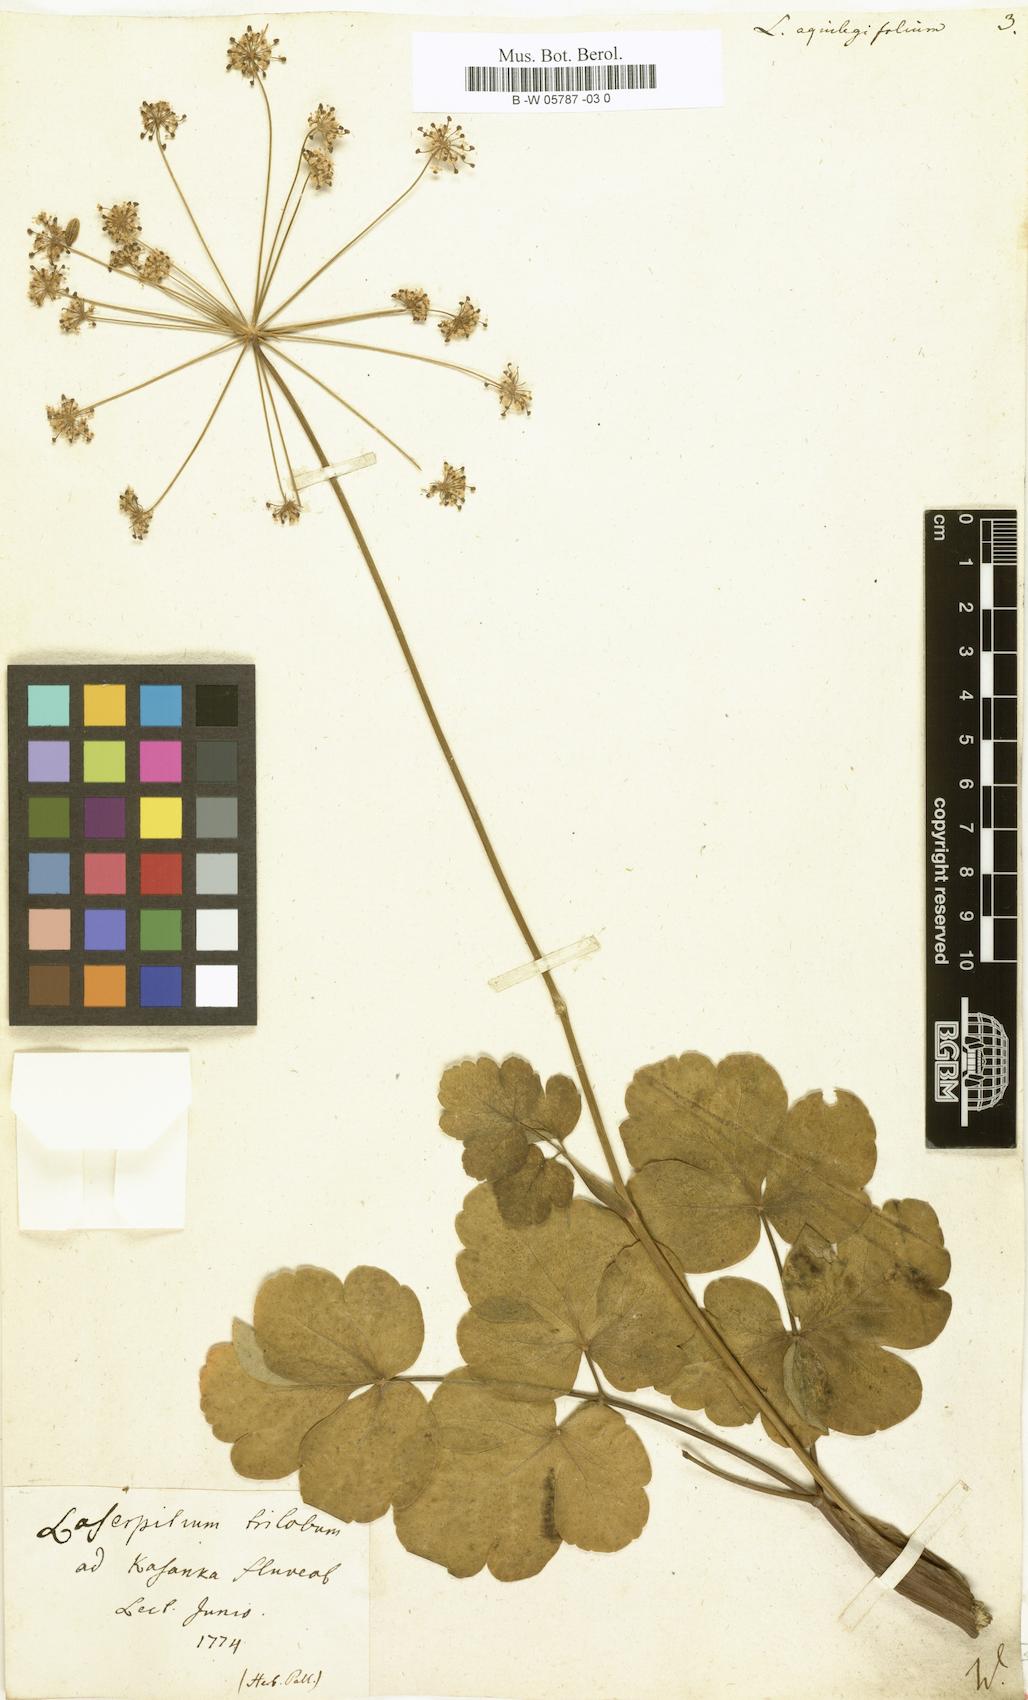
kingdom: Plantae
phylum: Tracheophyta
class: Magnoliopsida
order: Apiales
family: Apiaceae
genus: Laserpitium
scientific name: Laserpitium aquilegifolium
